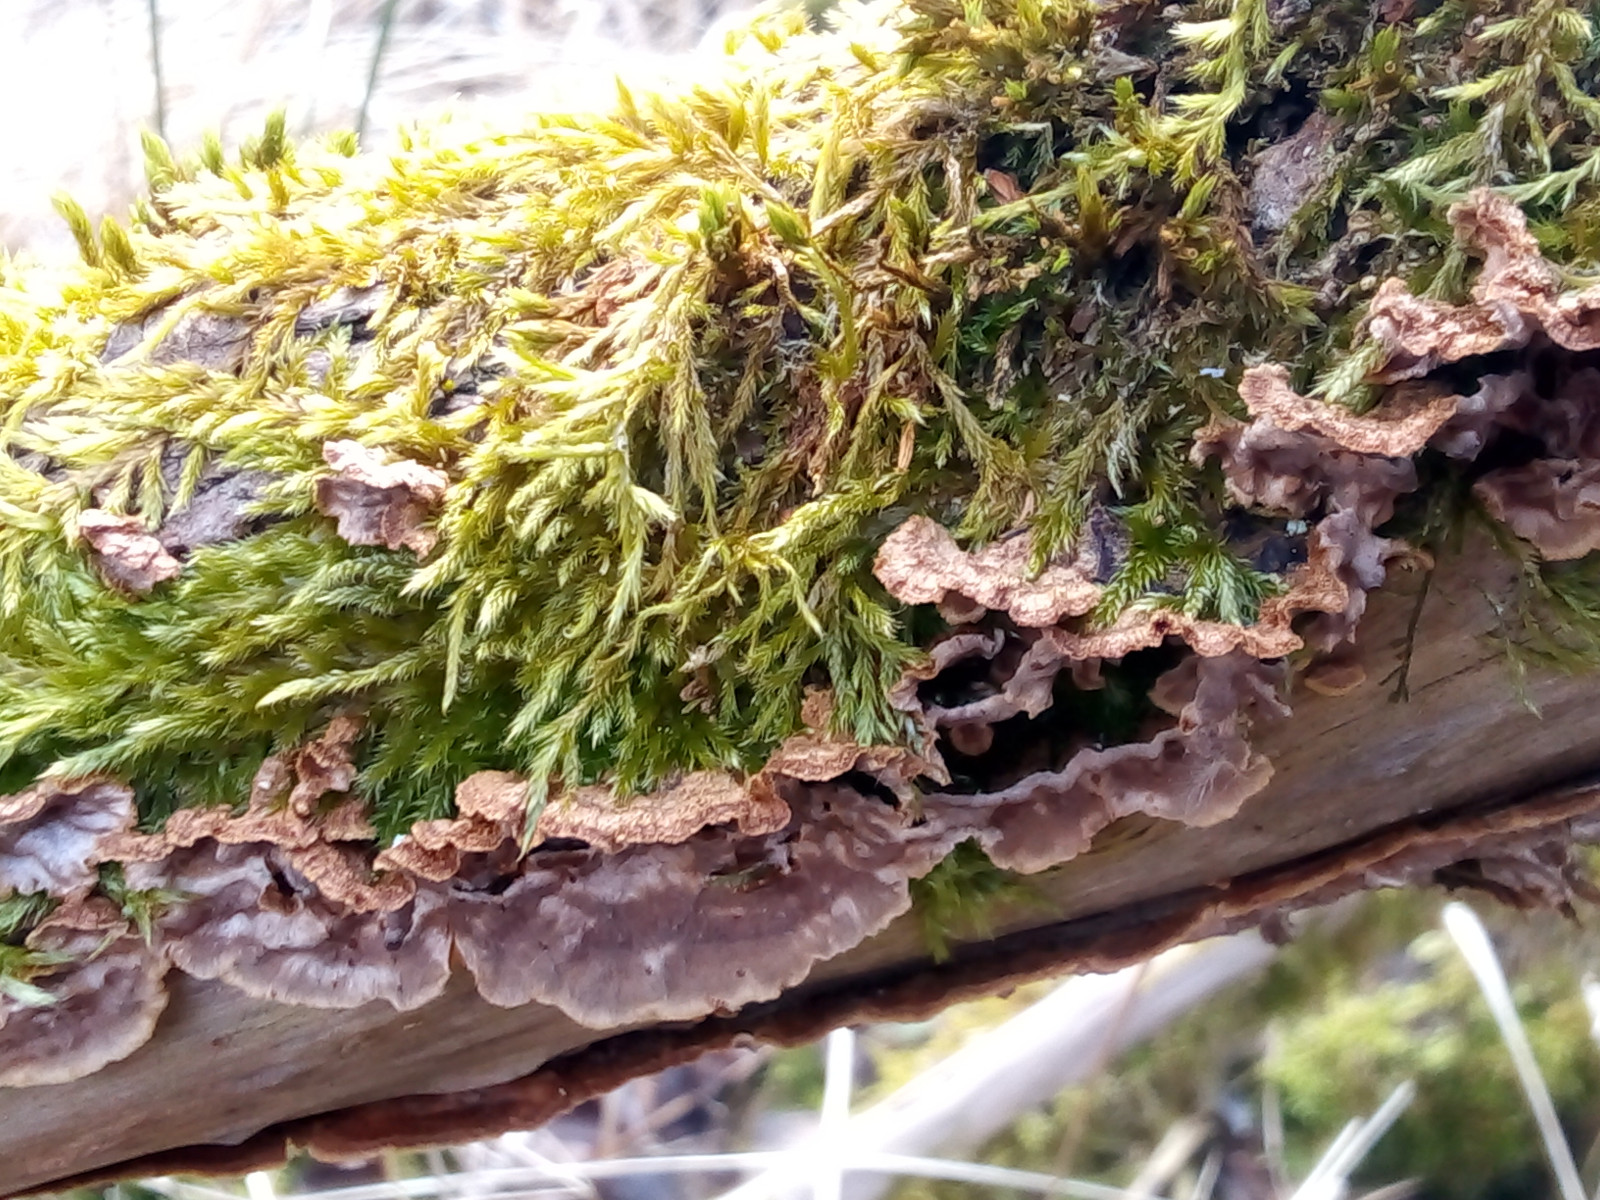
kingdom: Fungi
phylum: Basidiomycota
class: Agaricomycetes
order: Hymenochaetales
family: Hymenochaetaceae
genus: Hydnoporia
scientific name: Hydnoporia tabacina
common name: tobaksbrun ruslædersvamp
